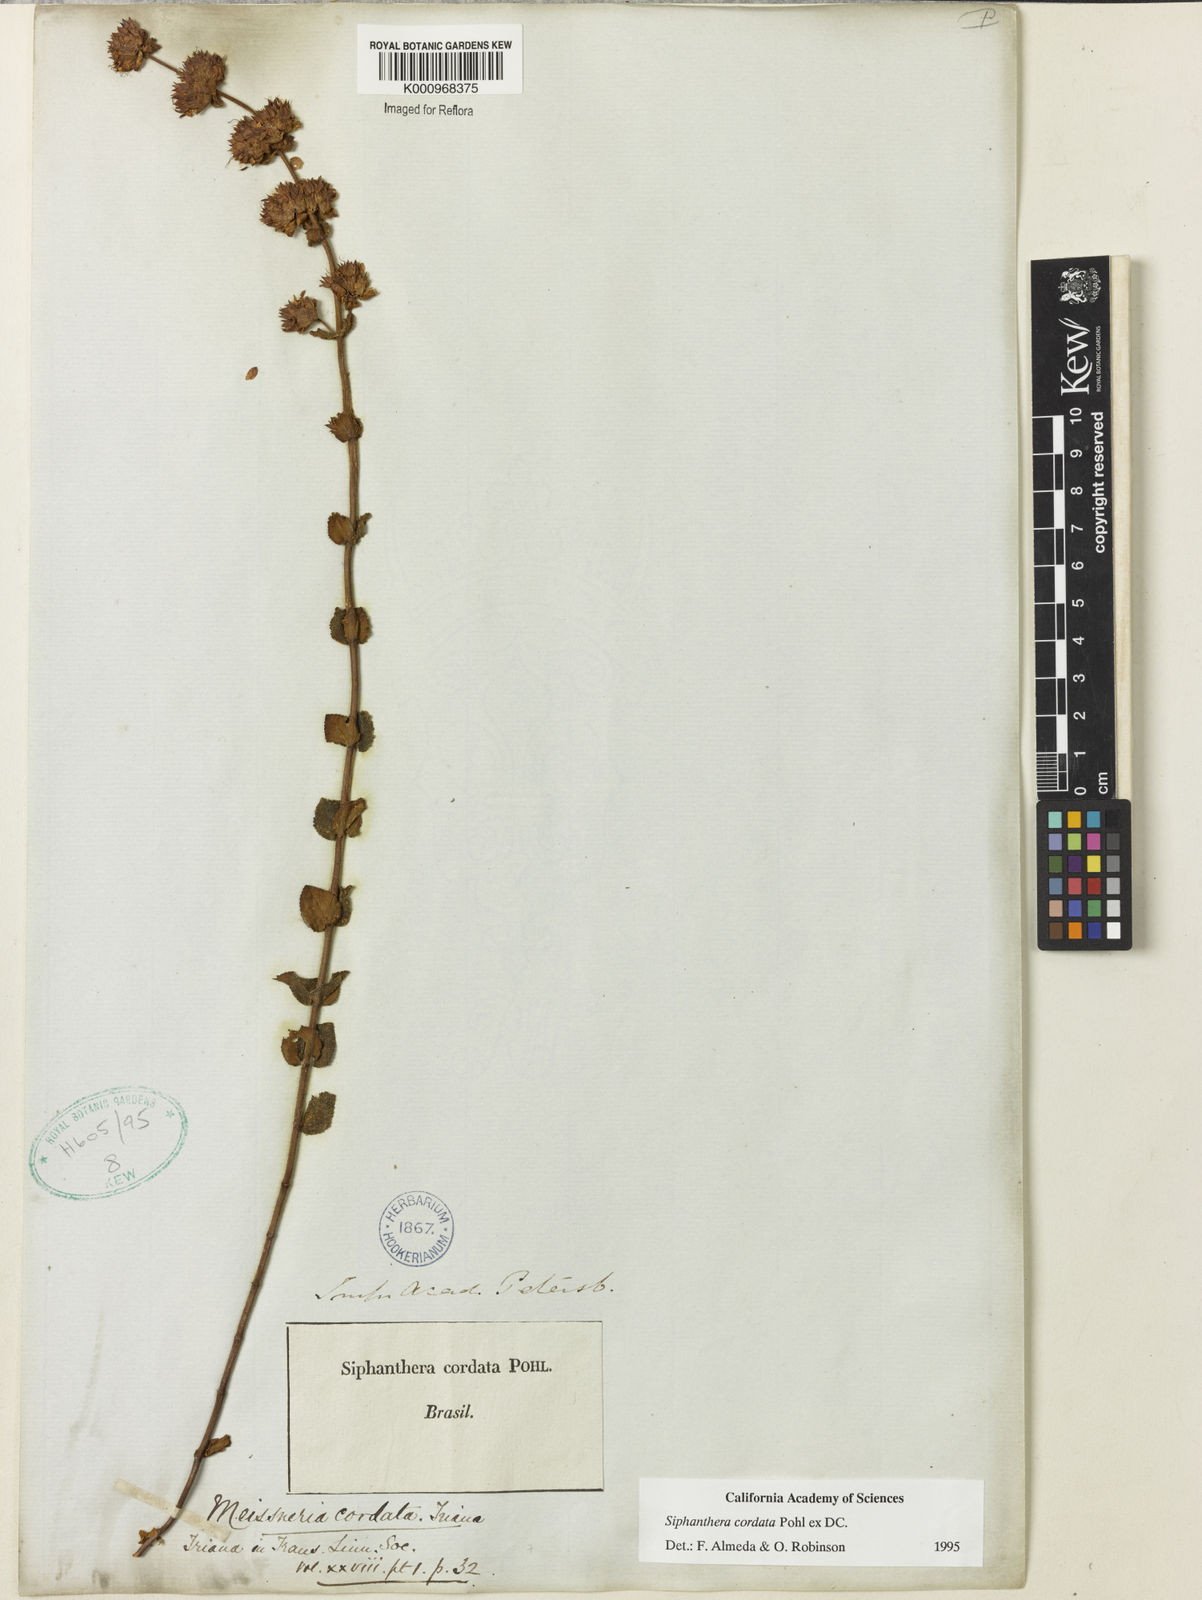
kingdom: Plantae
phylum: Tracheophyta
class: Magnoliopsida
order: Myrtales
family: Melastomataceae
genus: Siphanthera
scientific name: Siphanthera
